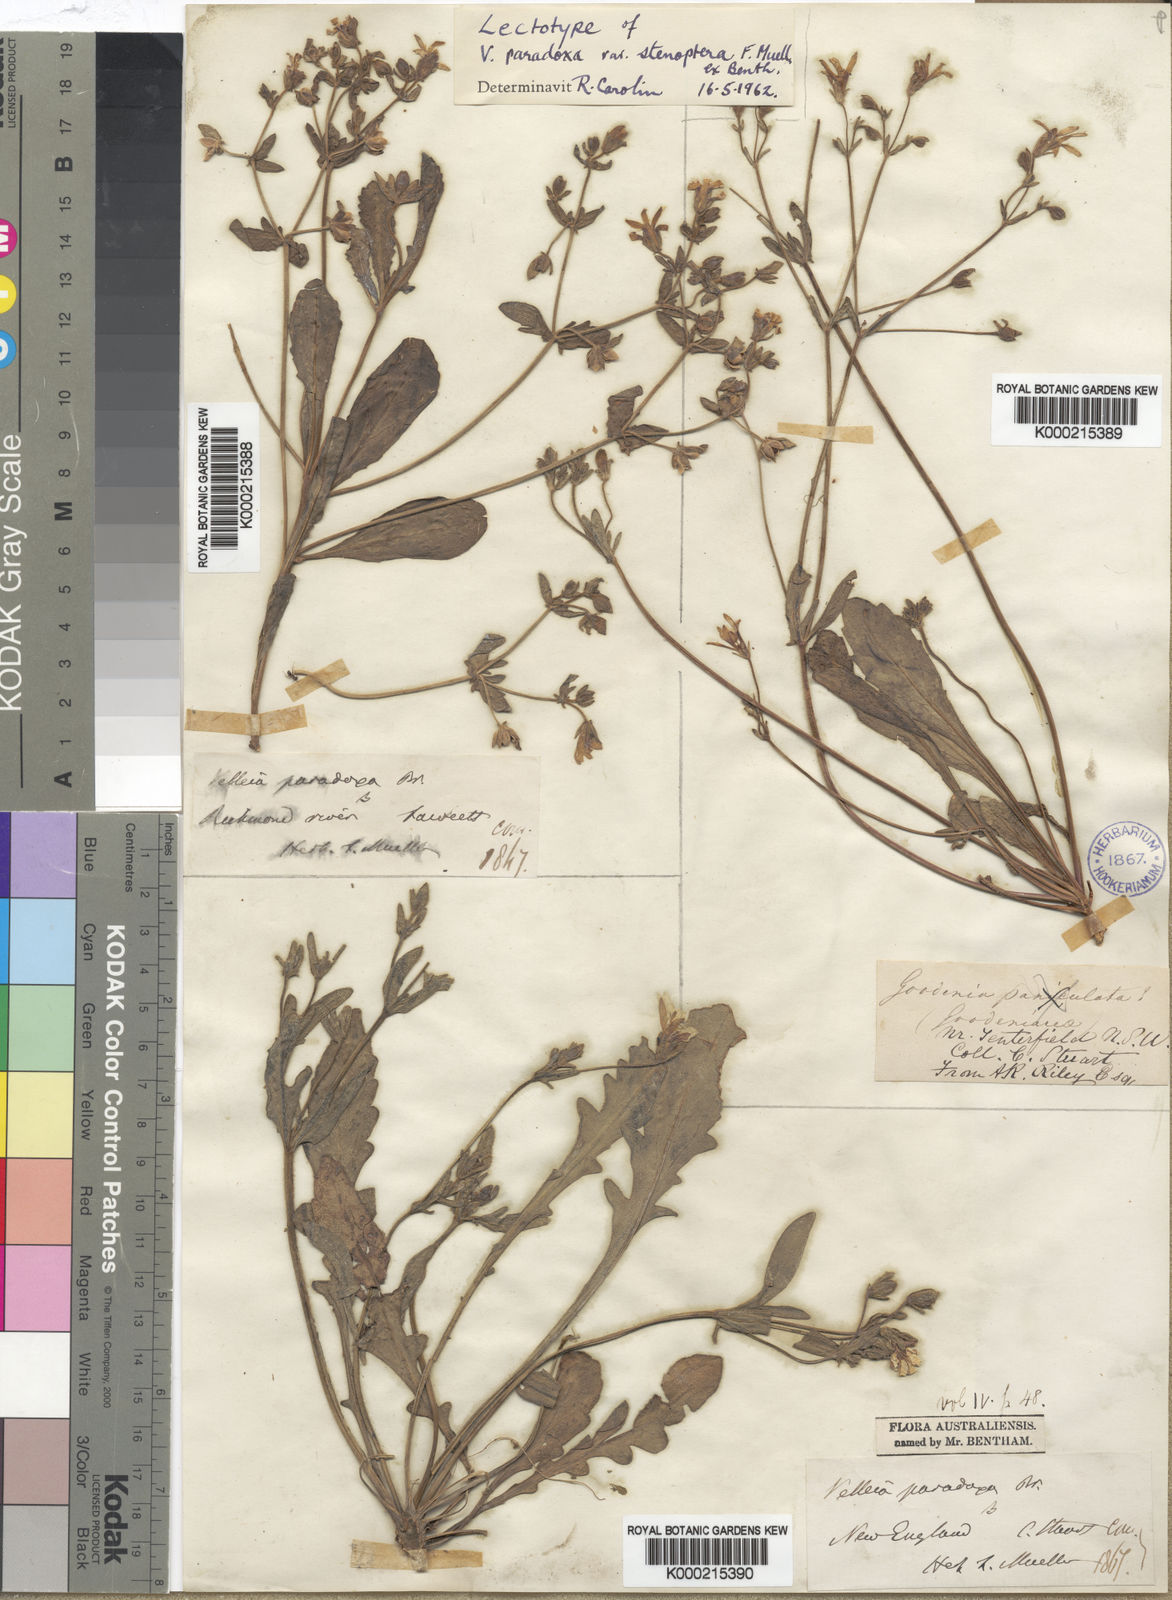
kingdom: Plantae
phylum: Tracheophyta
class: Magnoliopsida
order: Asterales
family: Goodeniaceae
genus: Goodenia
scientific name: Goodenia paradoxa
